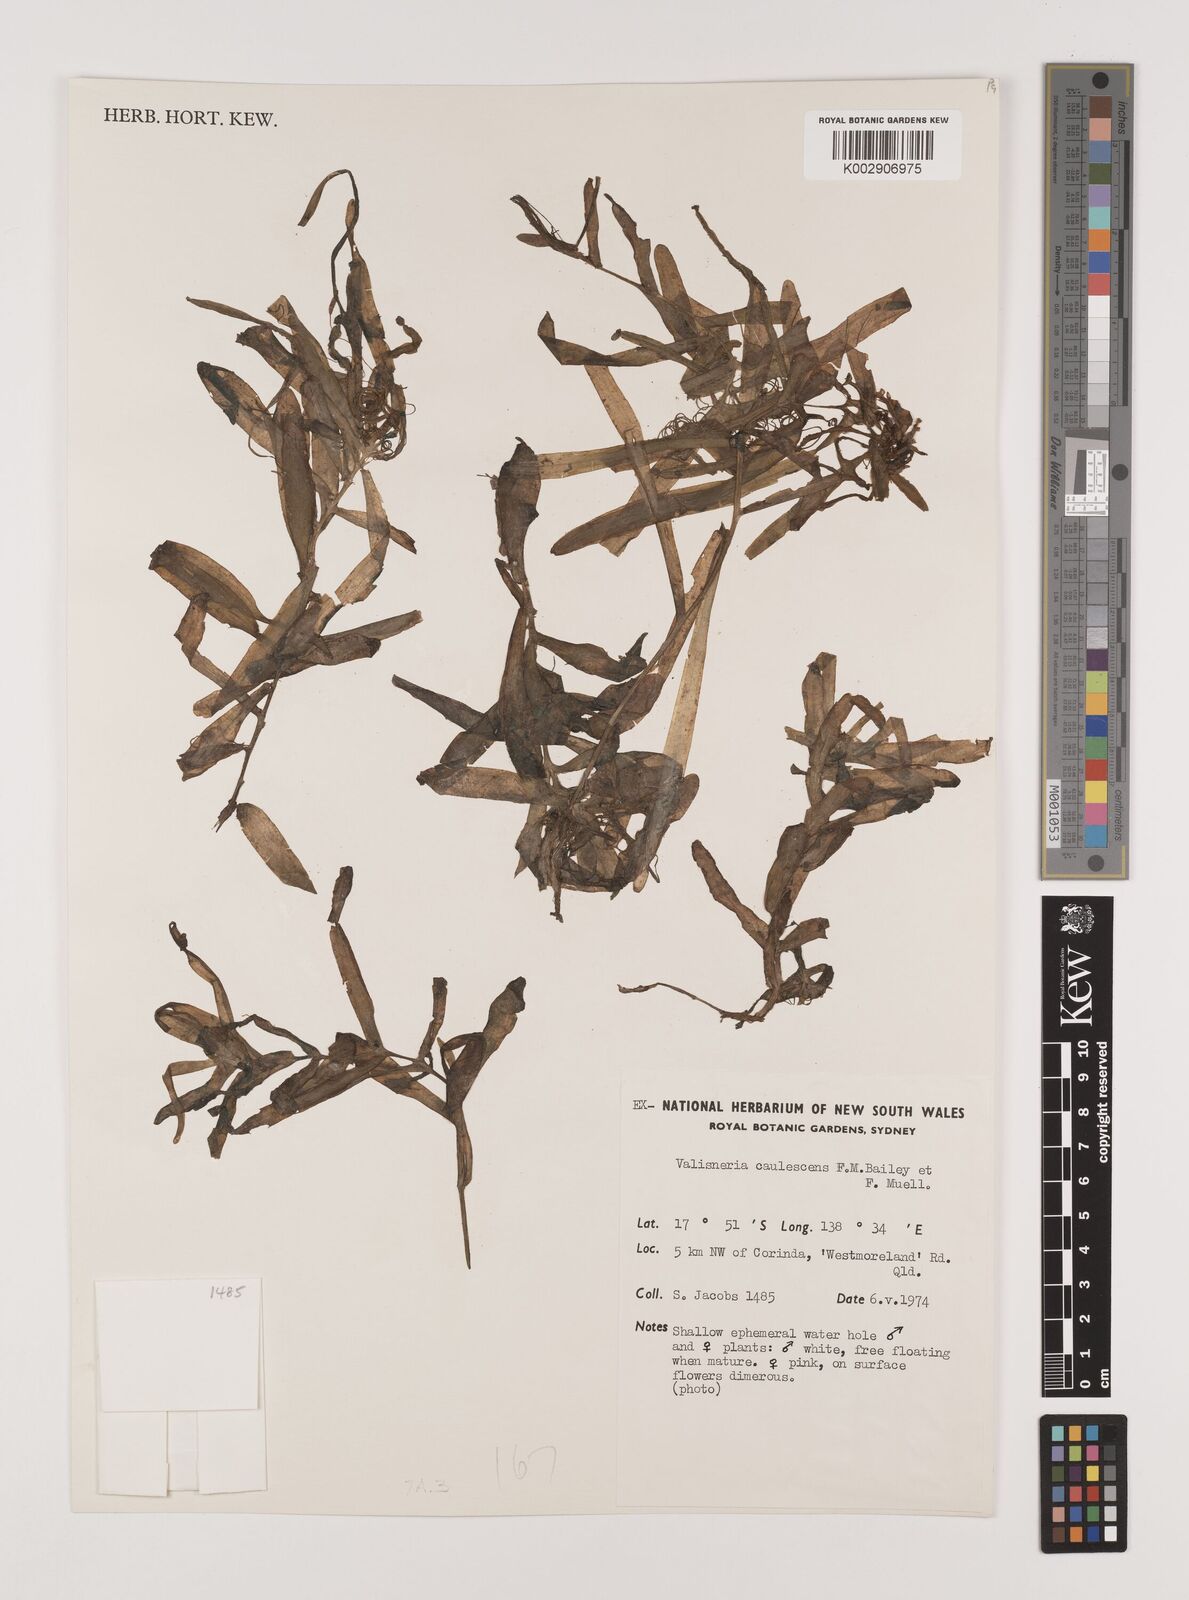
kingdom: Plantae
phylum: Tracheophyta
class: Liliopsida
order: Alismatales
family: Hydrocharitaceae
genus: Vallisneria
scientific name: Vallisneria caulescens
